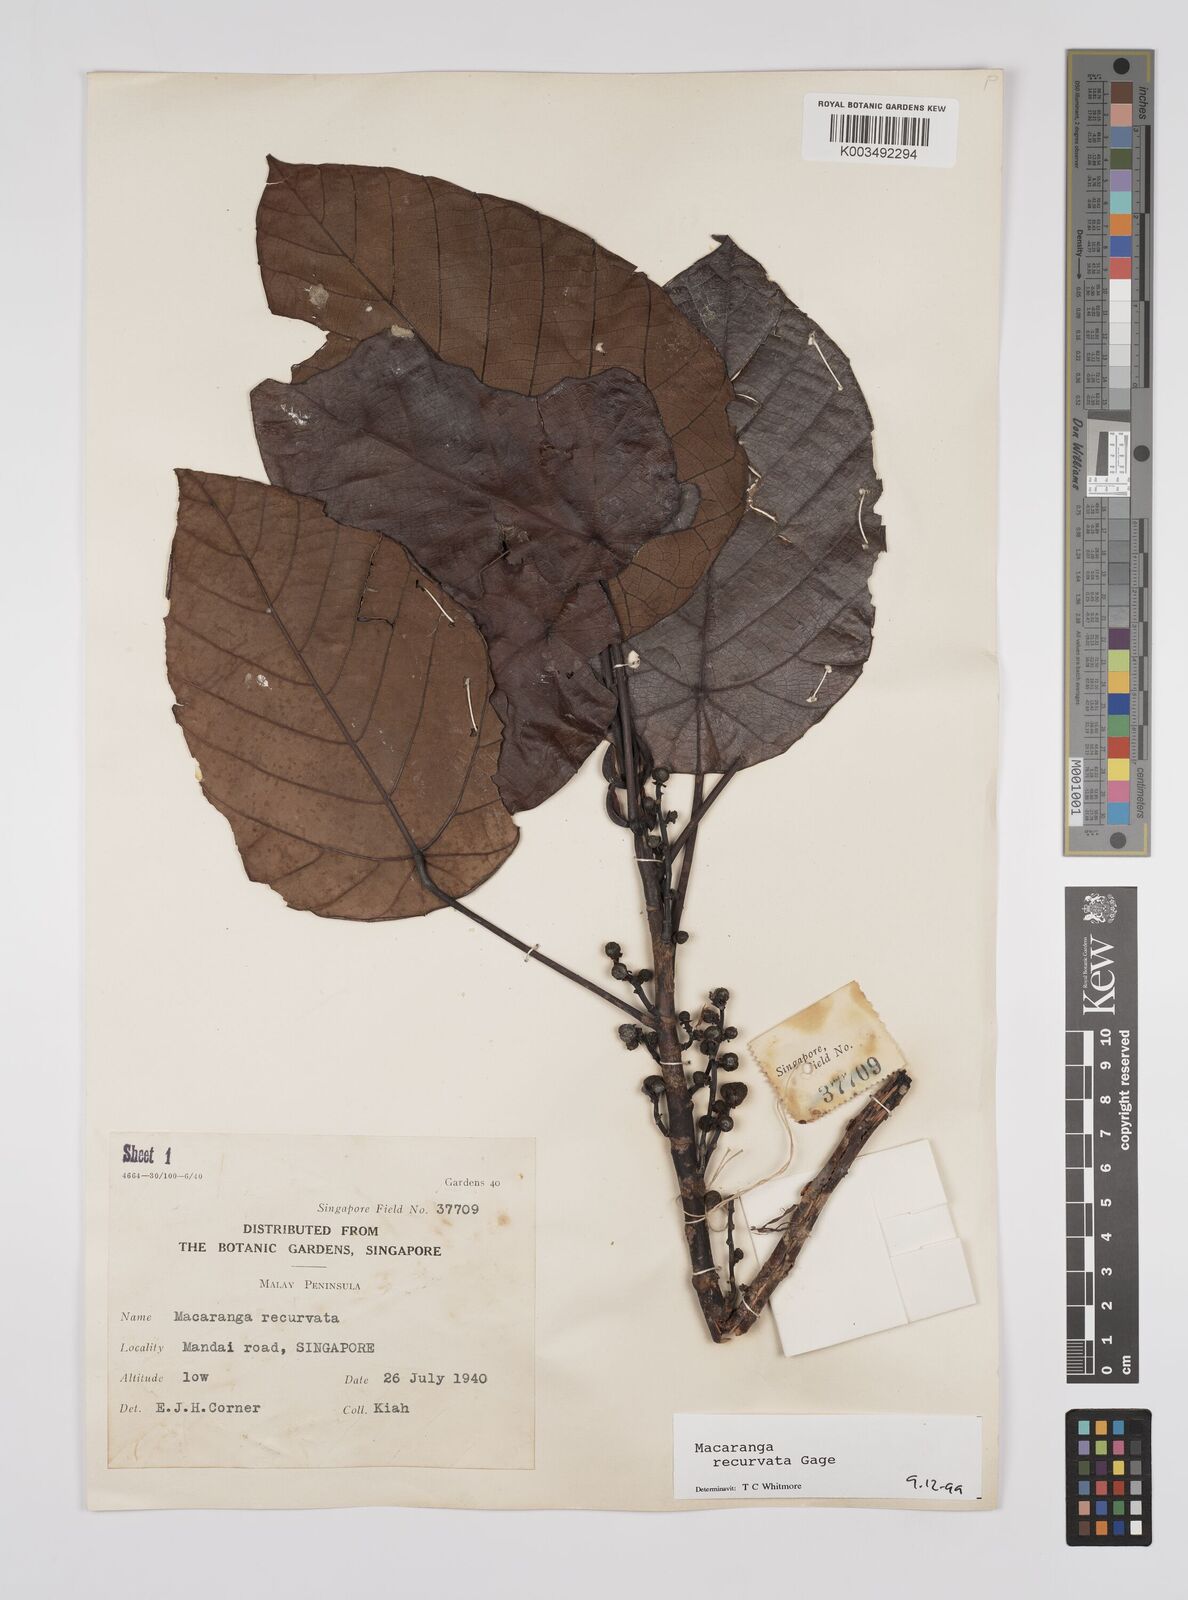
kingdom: Plantae
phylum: Tracheophyta
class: Magnoliopsida
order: Malpighiales
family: Euphorbiaceae
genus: Macaranga
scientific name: Macaranga recurvata
